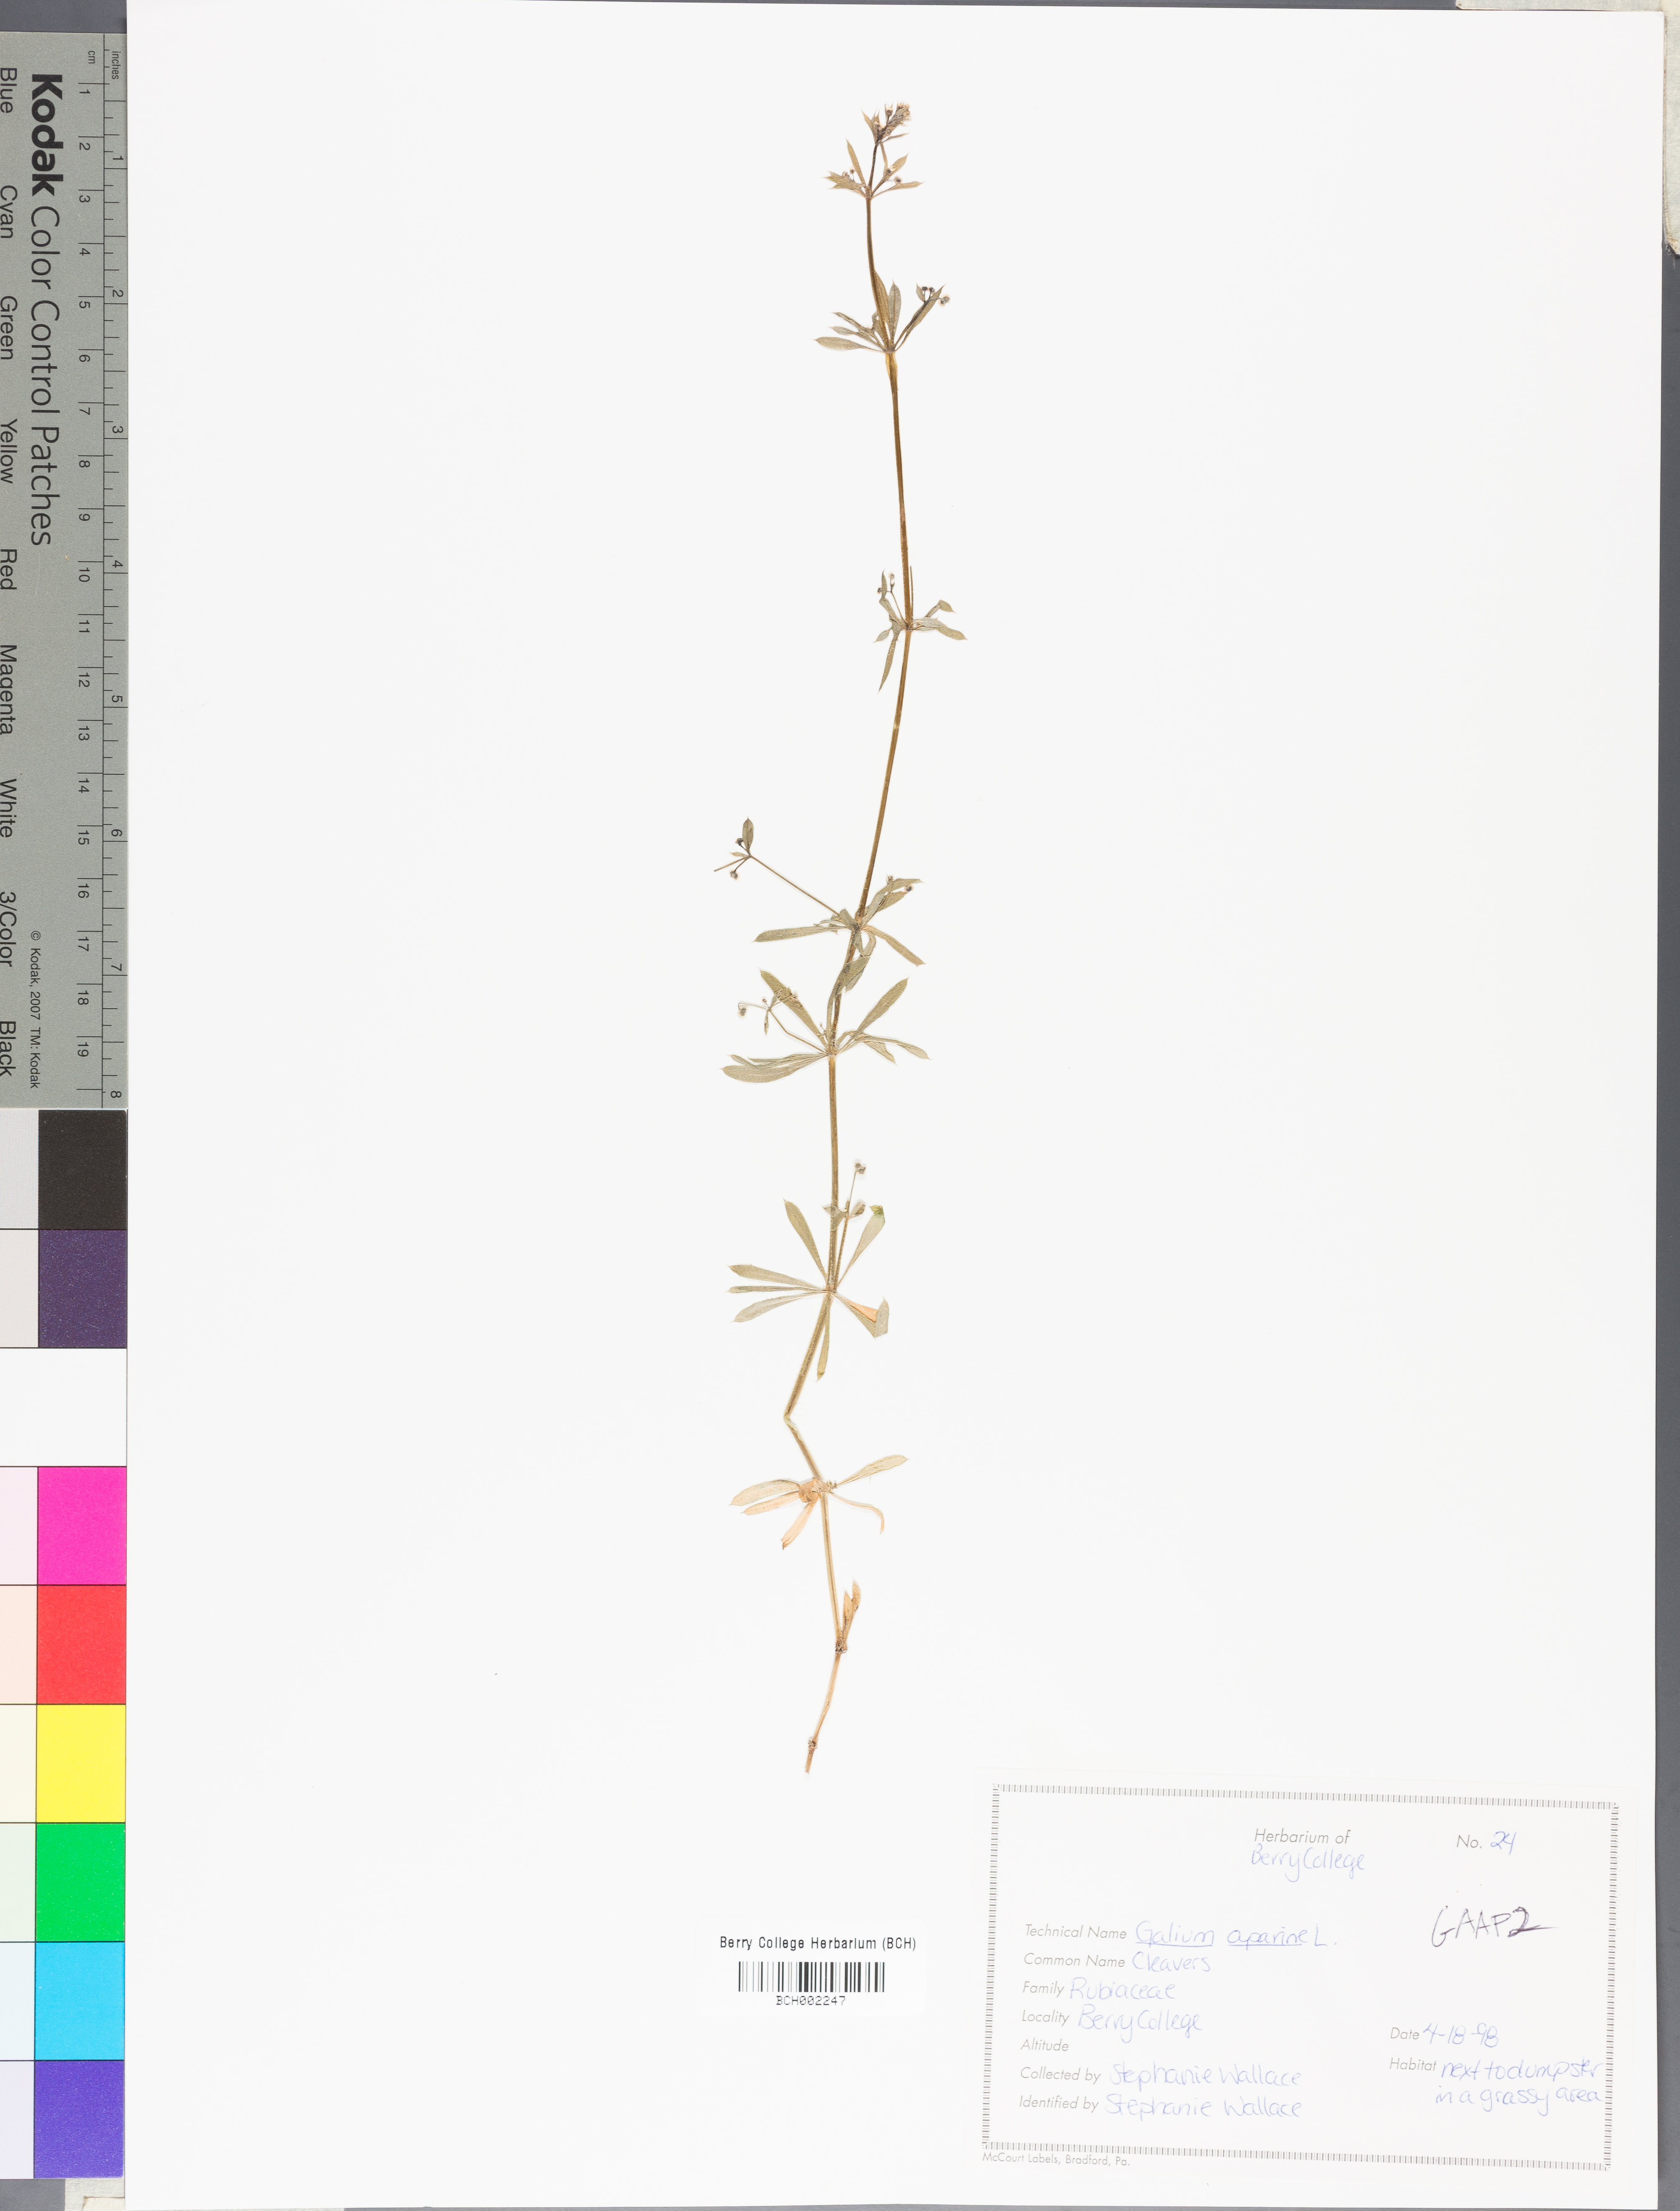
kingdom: Plantae
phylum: Tracheophyta
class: Magnoliopsida
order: Gentianales
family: Rubiaceae
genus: Galium
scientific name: Galium aparine
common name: Cleavers
